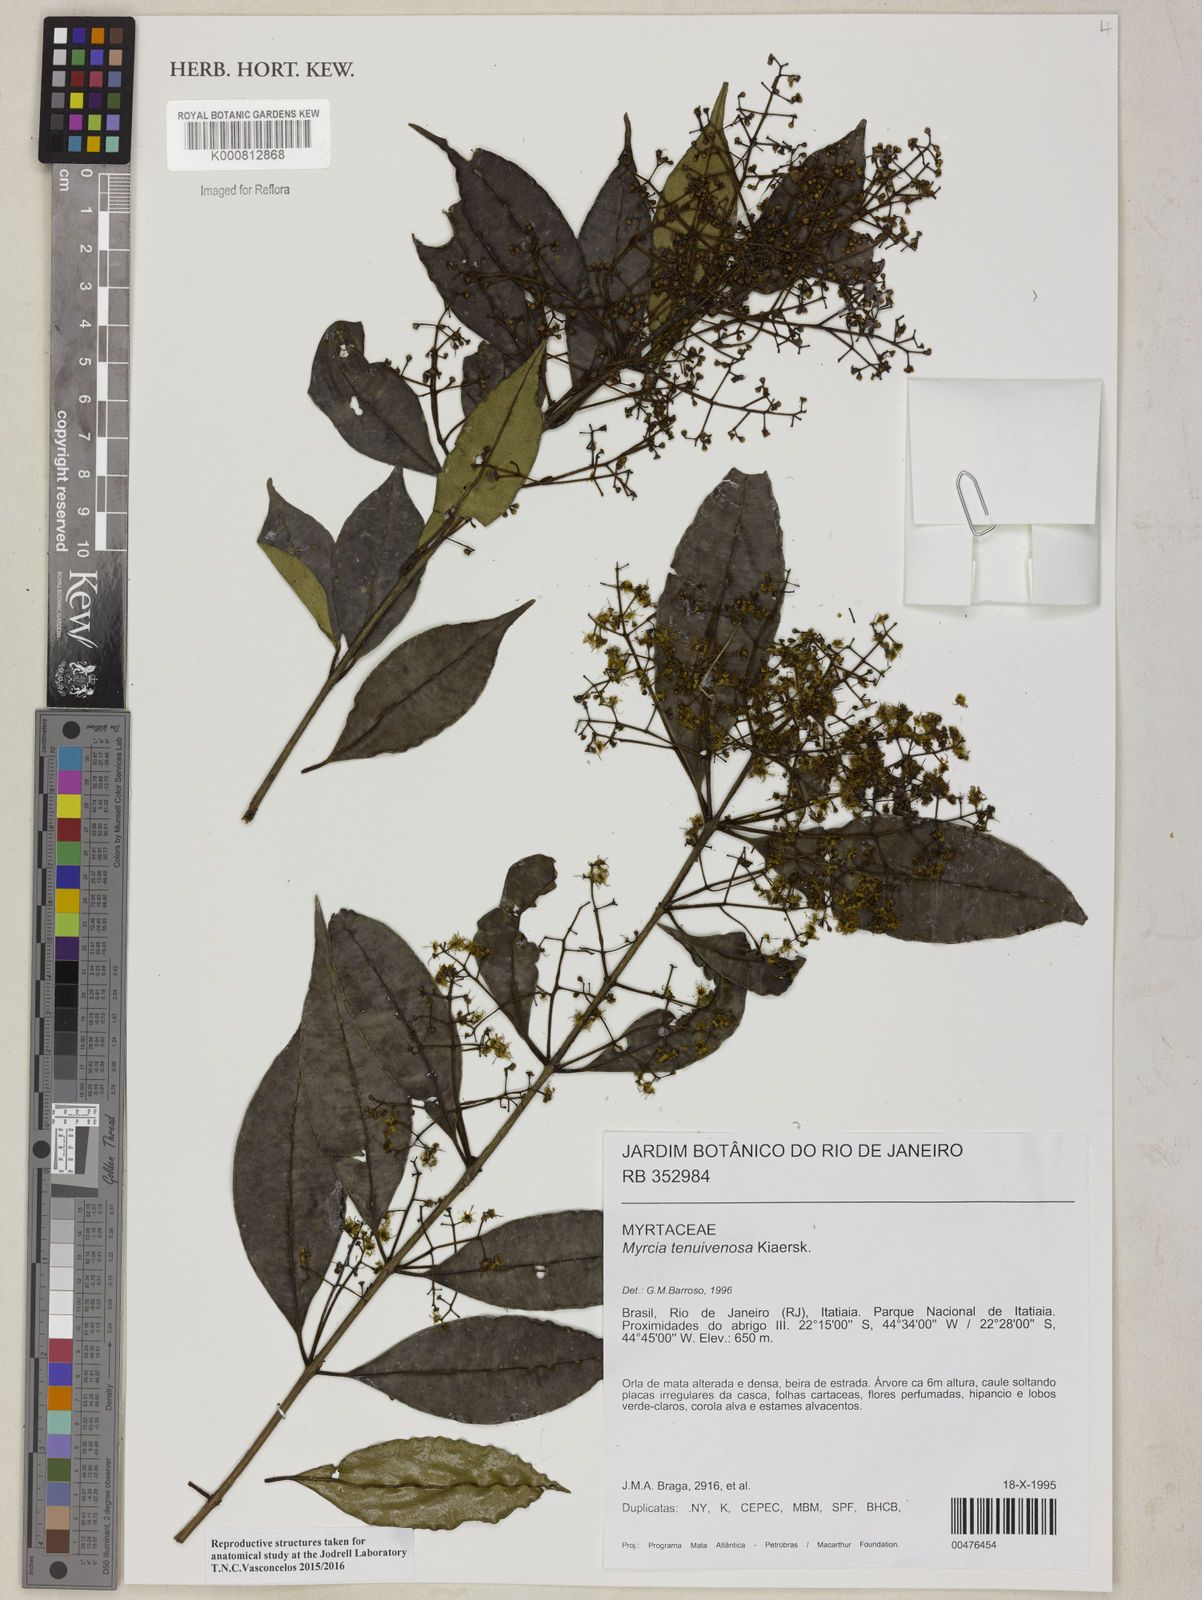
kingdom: Plantae
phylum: Tracheophyta
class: Magnoliopsida
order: Myrtales
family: Myrtaceae
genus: Myrcia
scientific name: Myrcia tenuivenosa
